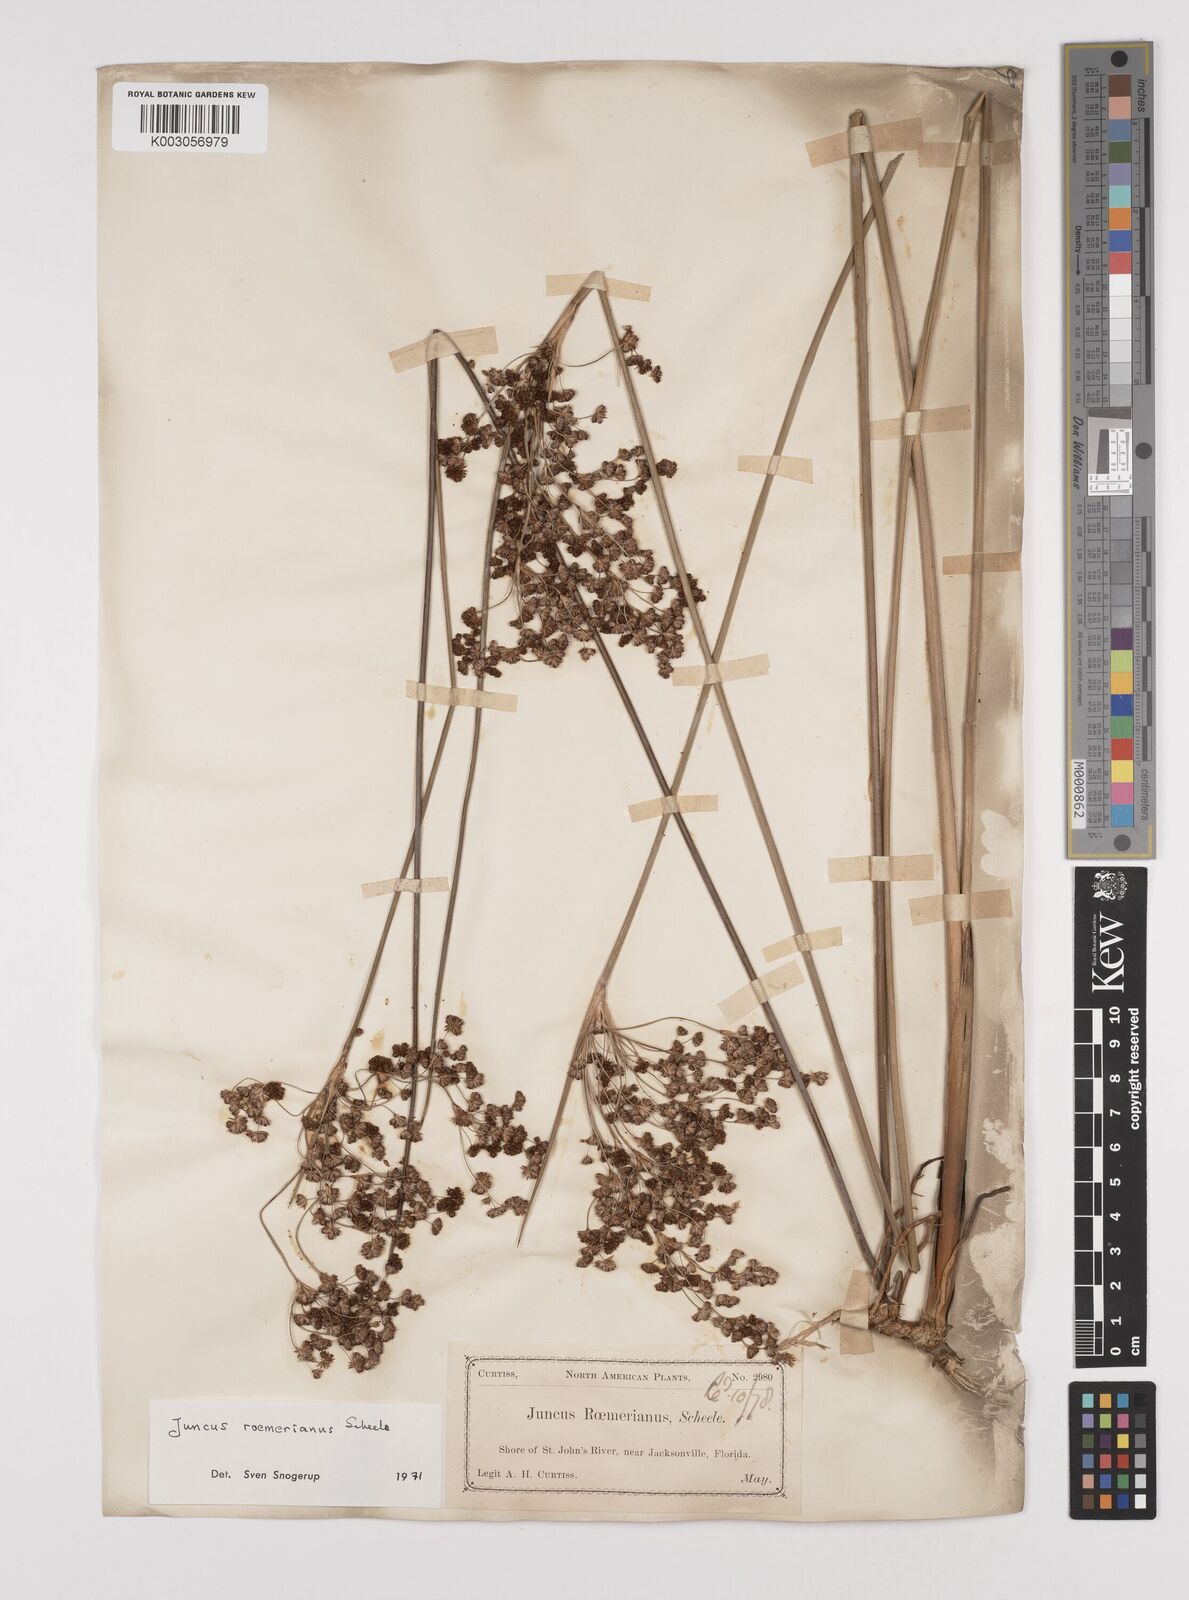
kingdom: Plantae
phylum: Tracheophyta
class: Liliopsida
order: Poales
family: Juncaceae
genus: Juncus
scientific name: Juncus roemerianus
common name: Roemer's rush
